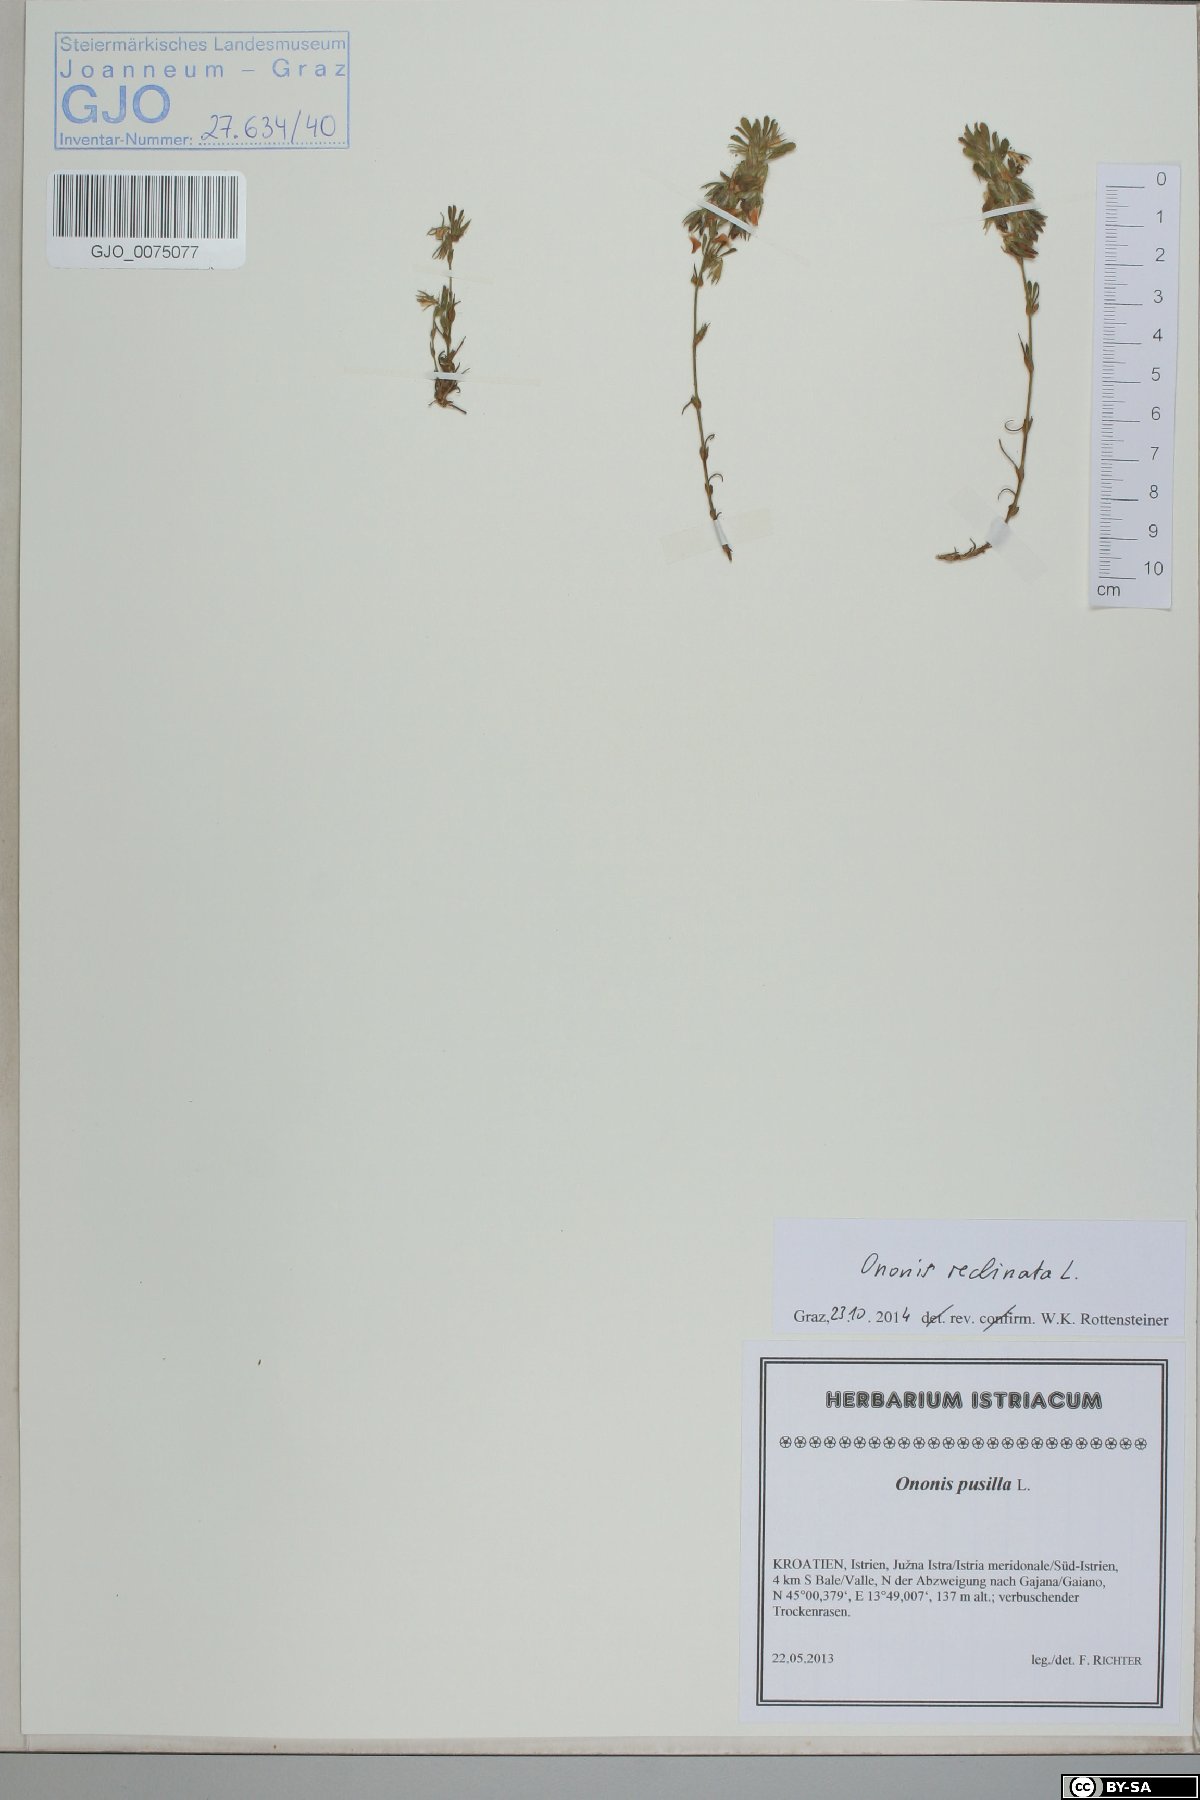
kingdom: Plantae
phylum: Tracheophyta
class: Magnoliopsida
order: Fabales
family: Fabaceae
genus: Ononis
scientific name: Ononis reclinata
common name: Small restharrow
